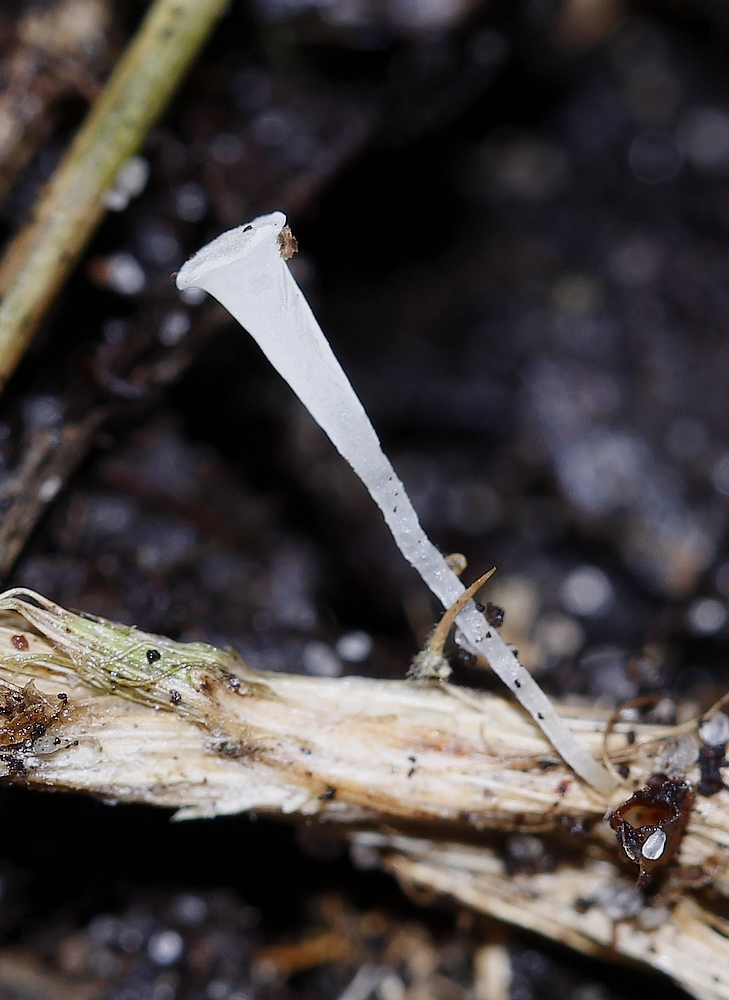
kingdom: Fungi
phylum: Basidiomycota
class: Agaricomycetes
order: Agaricales
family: Clavariaceae
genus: Clavicorona
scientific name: Clavicorona taxophila
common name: trompetkølle
